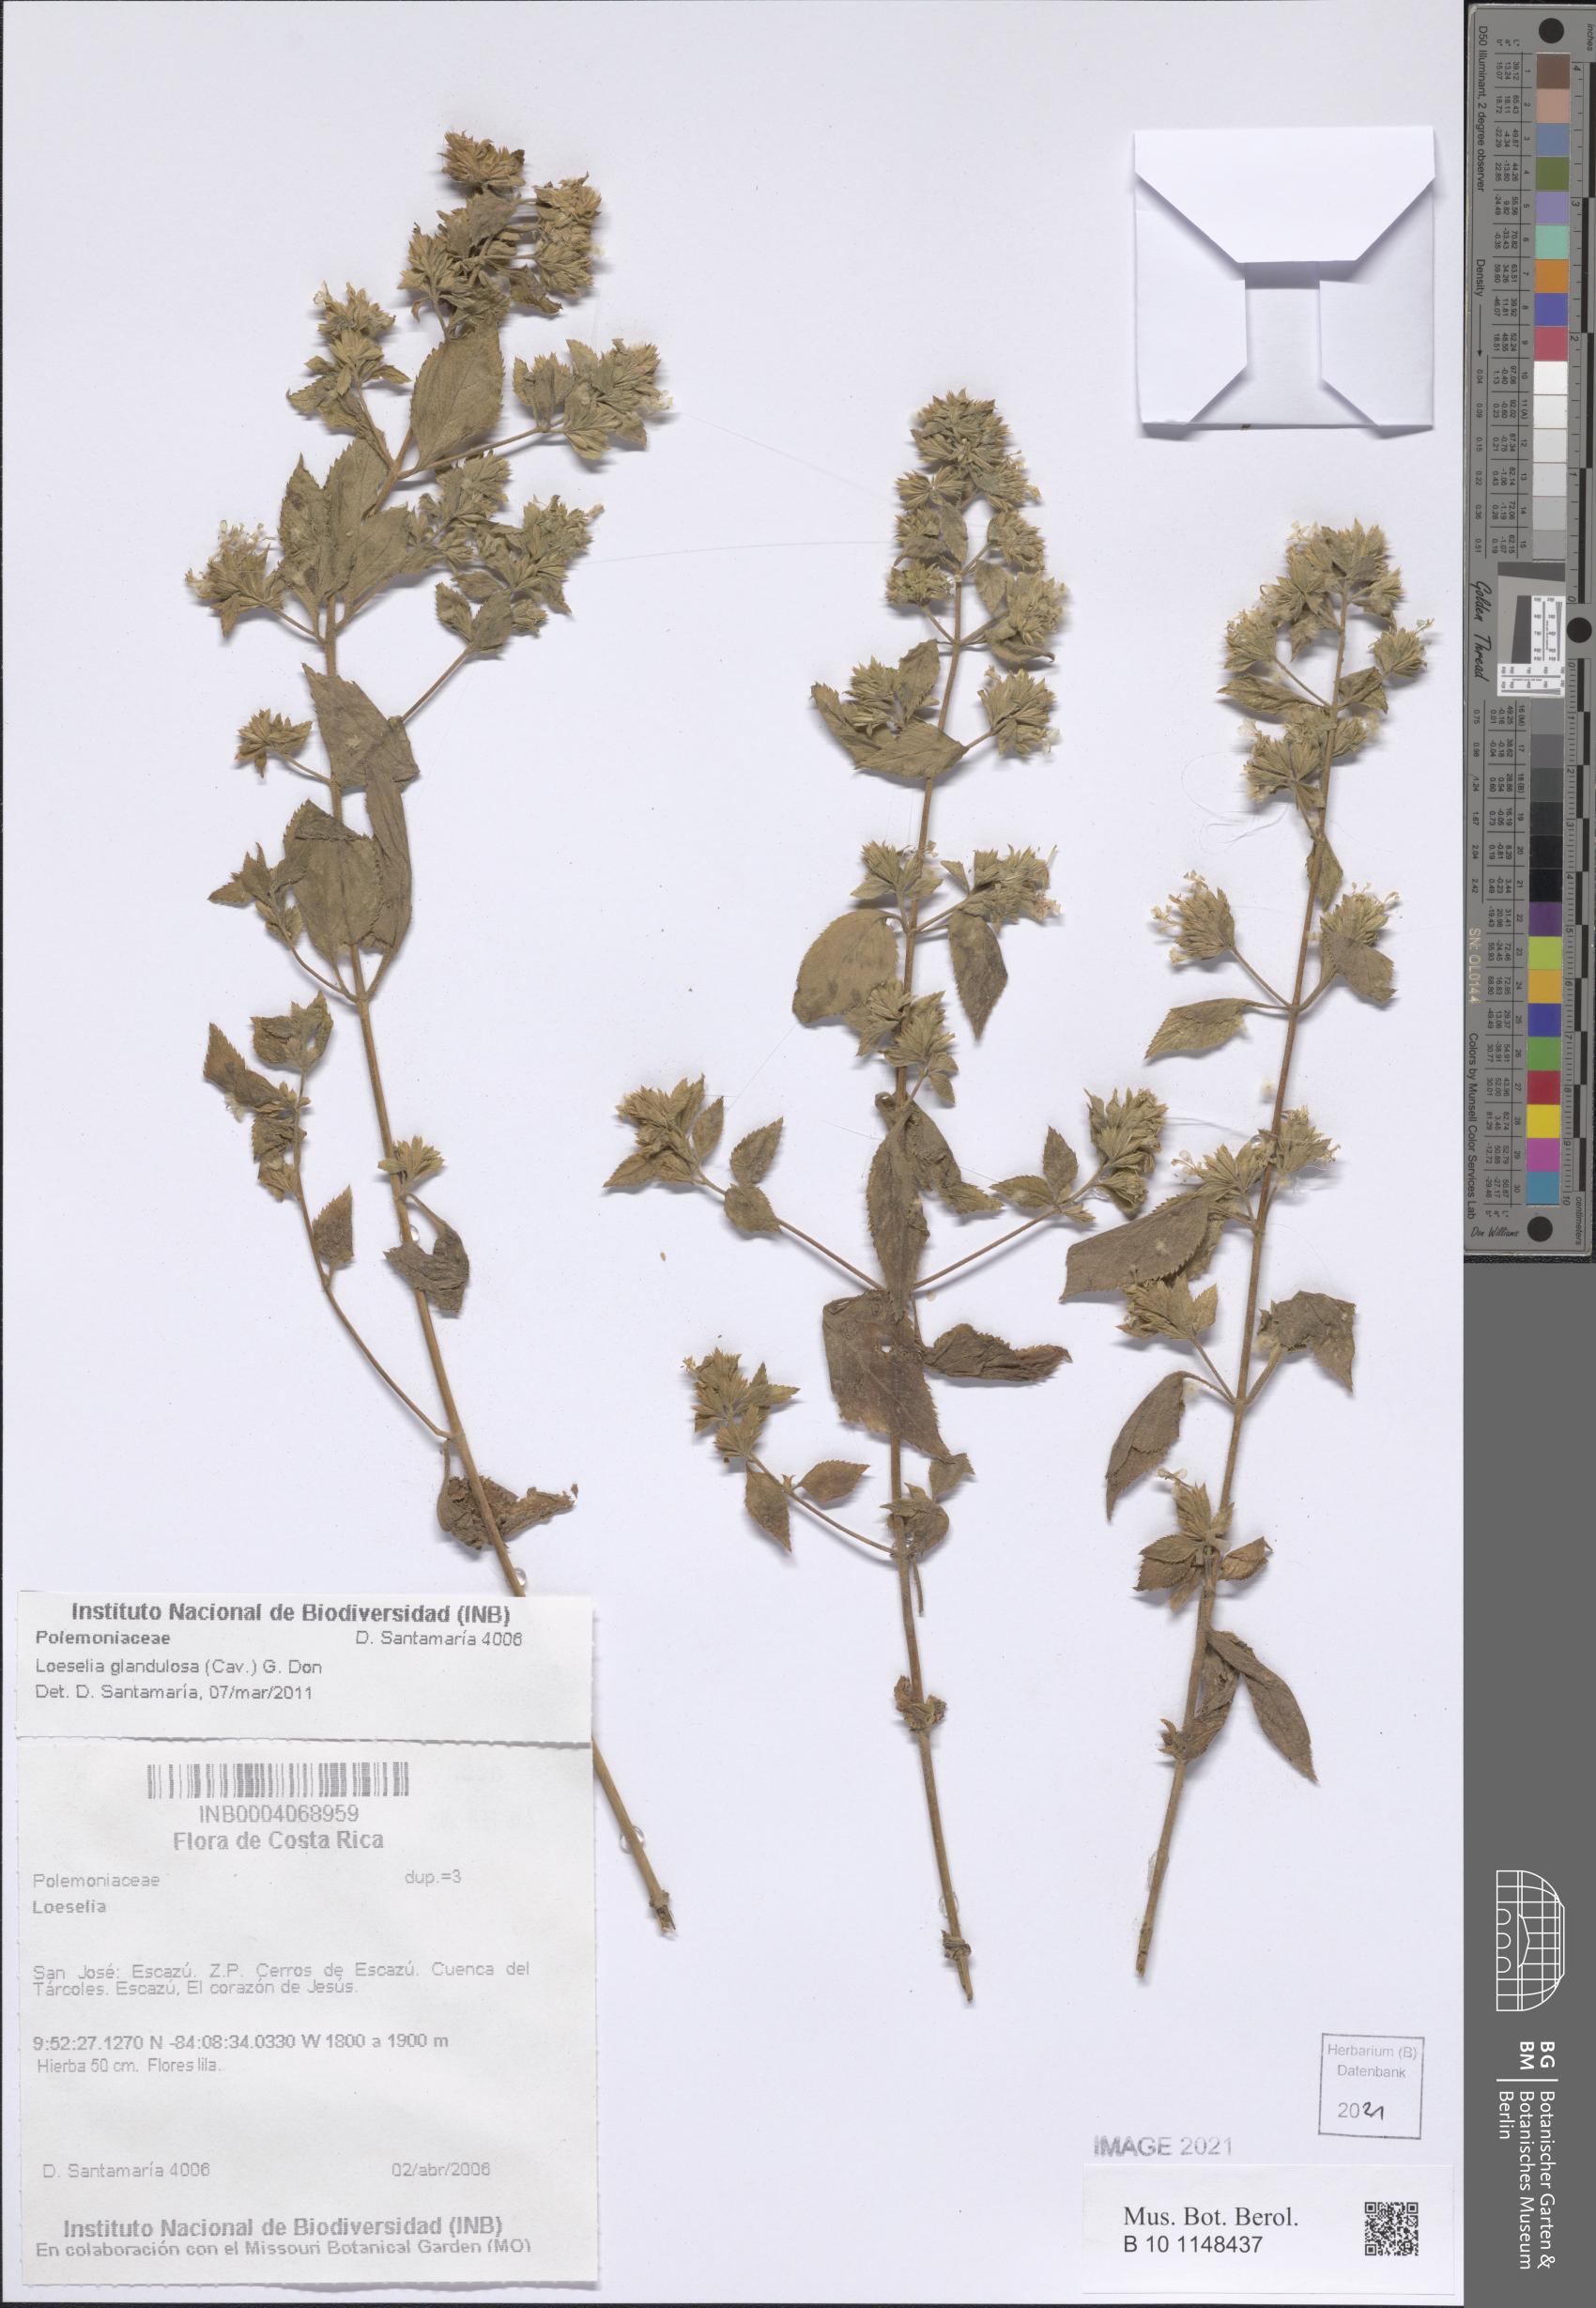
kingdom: Plantae
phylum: Tracheophyta
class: Magnoliopsida
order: Ericales
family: Polemoniaceae
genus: Loeselia
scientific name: Loeselia glandulosa
